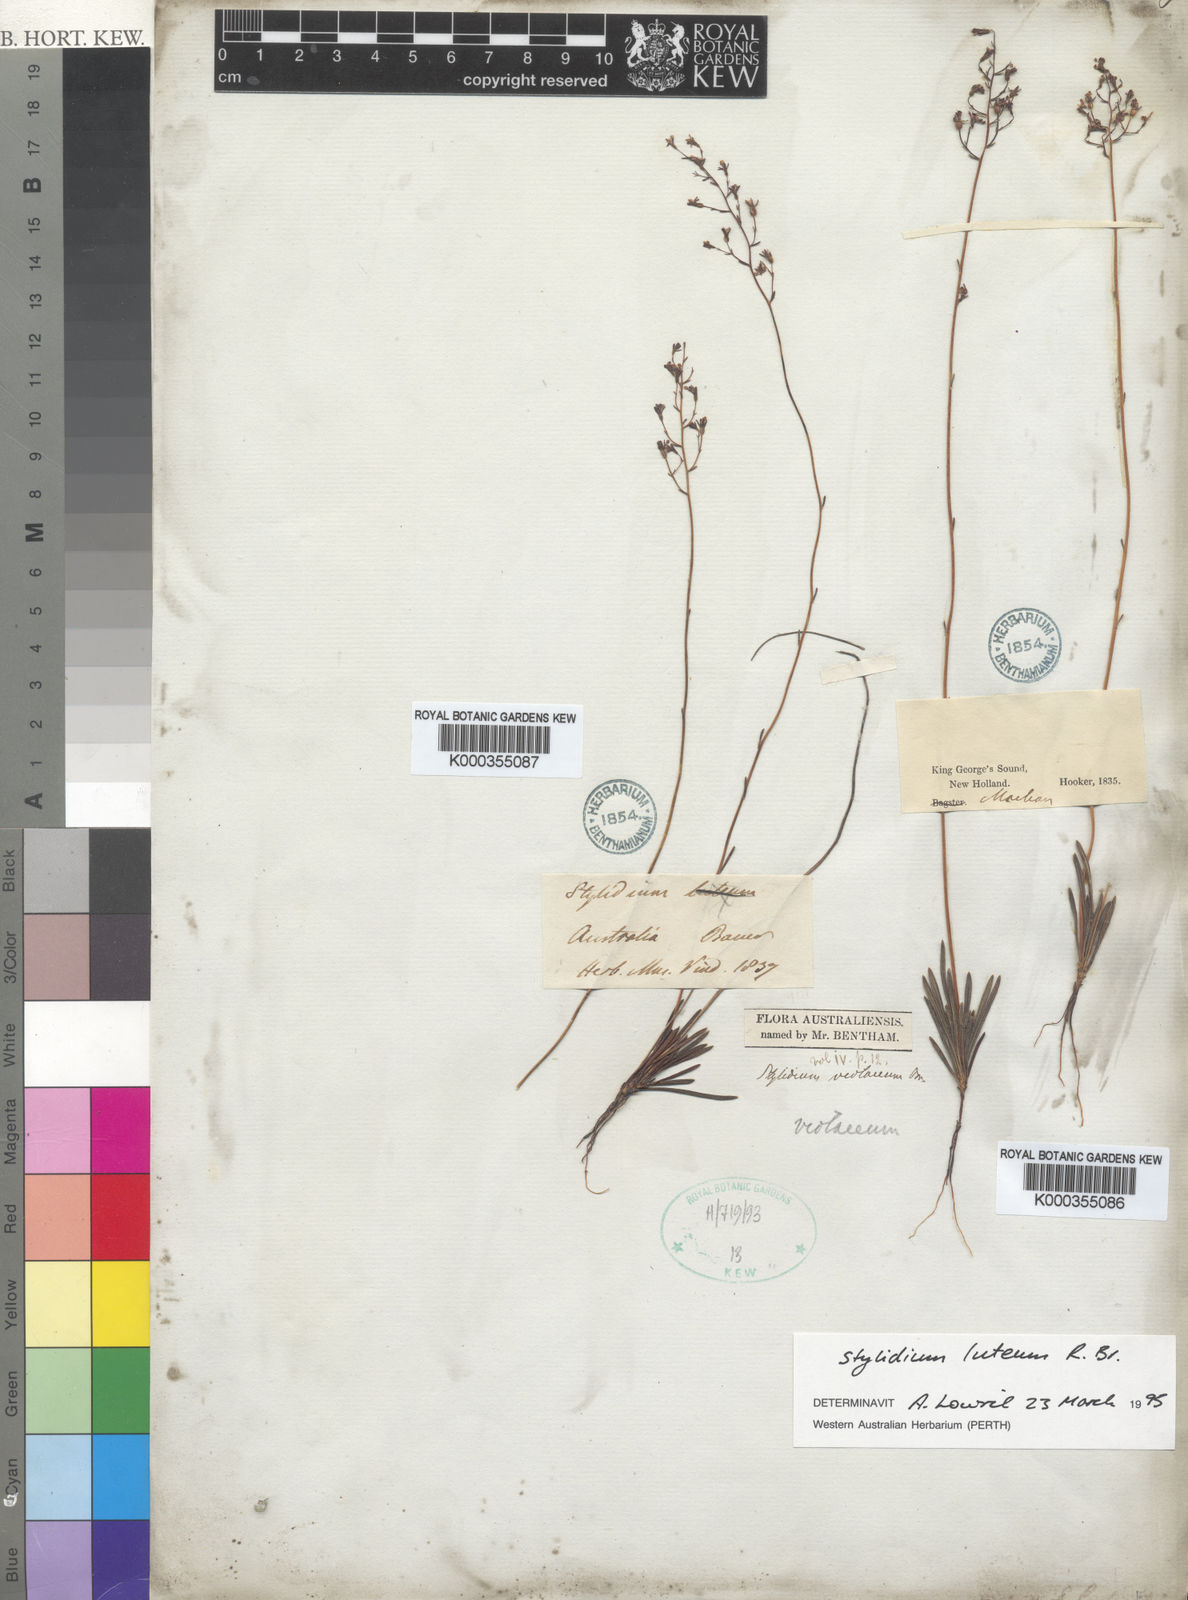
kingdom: Plantae
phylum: Tracheophyta
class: Magnoliopsida
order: Asterales
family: Stylidiaceae
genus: Stylidium
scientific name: Stylidium luteum
